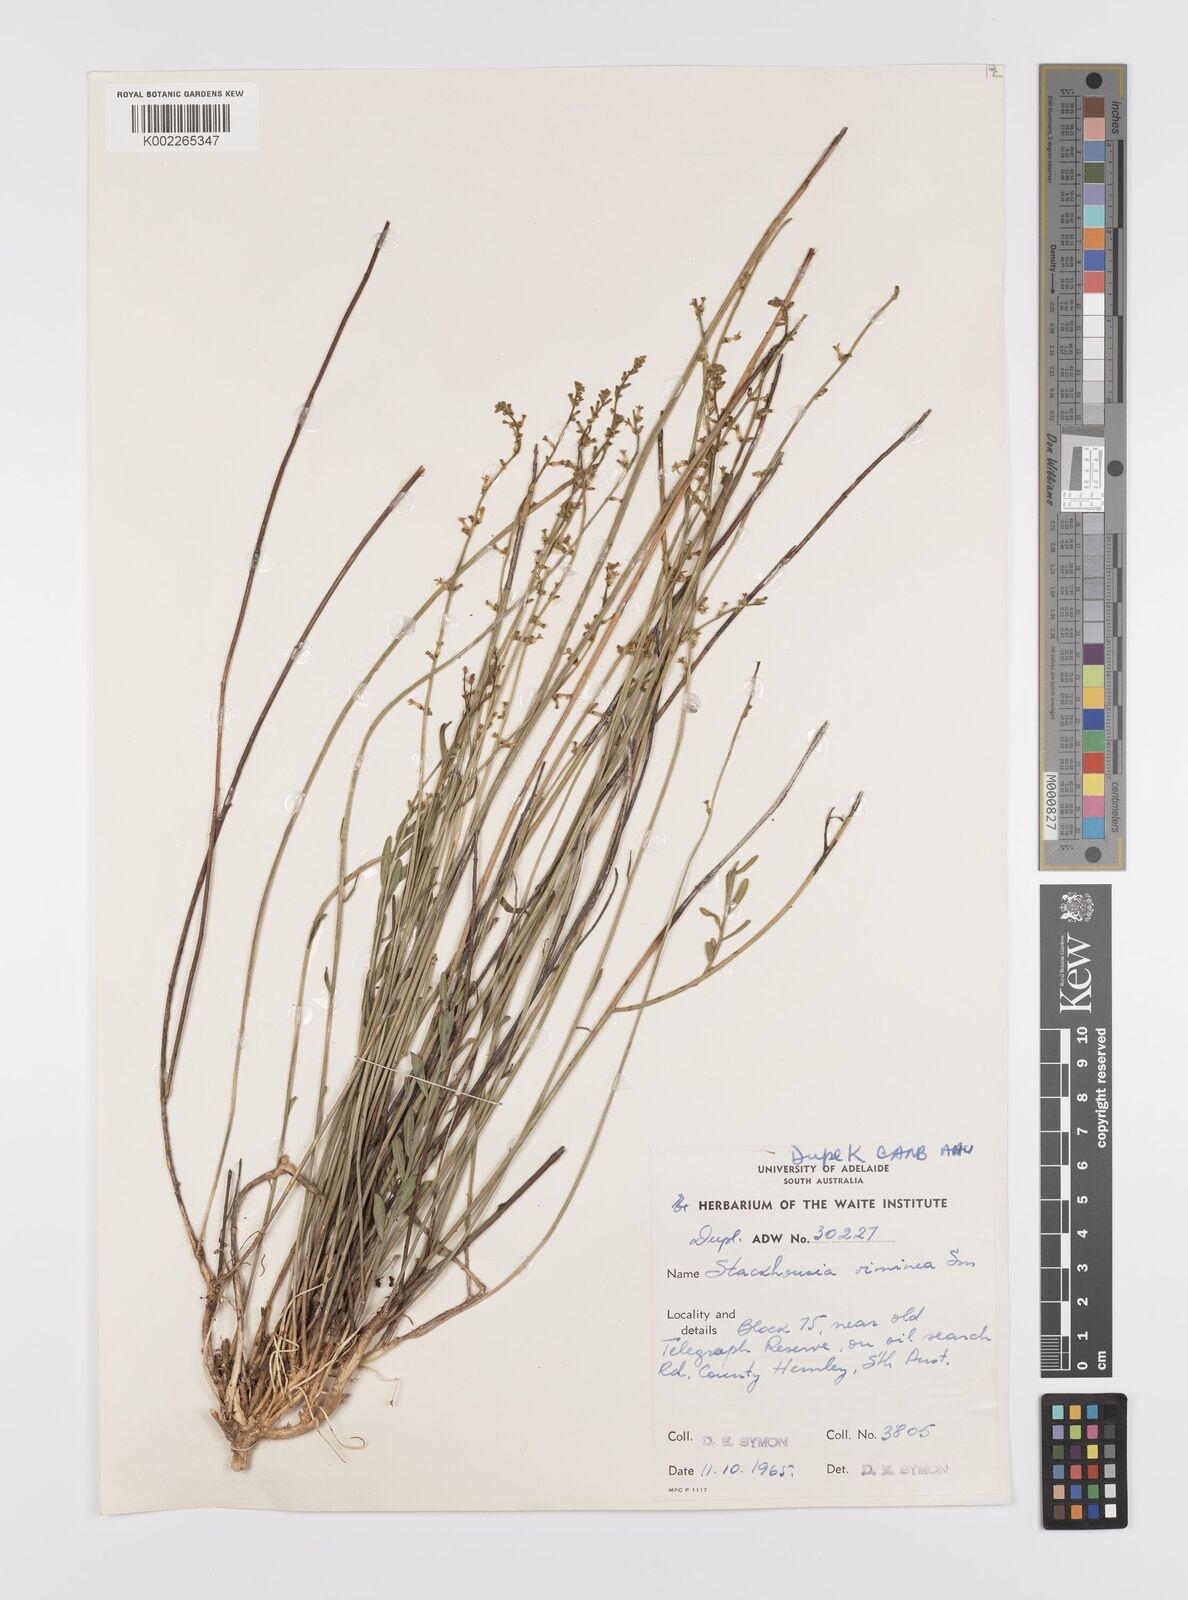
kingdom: Plantae
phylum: Tracheophyta
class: Magnoliopsida
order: Celastrales
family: Celastraceae
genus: Stackhousia
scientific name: Stackhousia viminea
